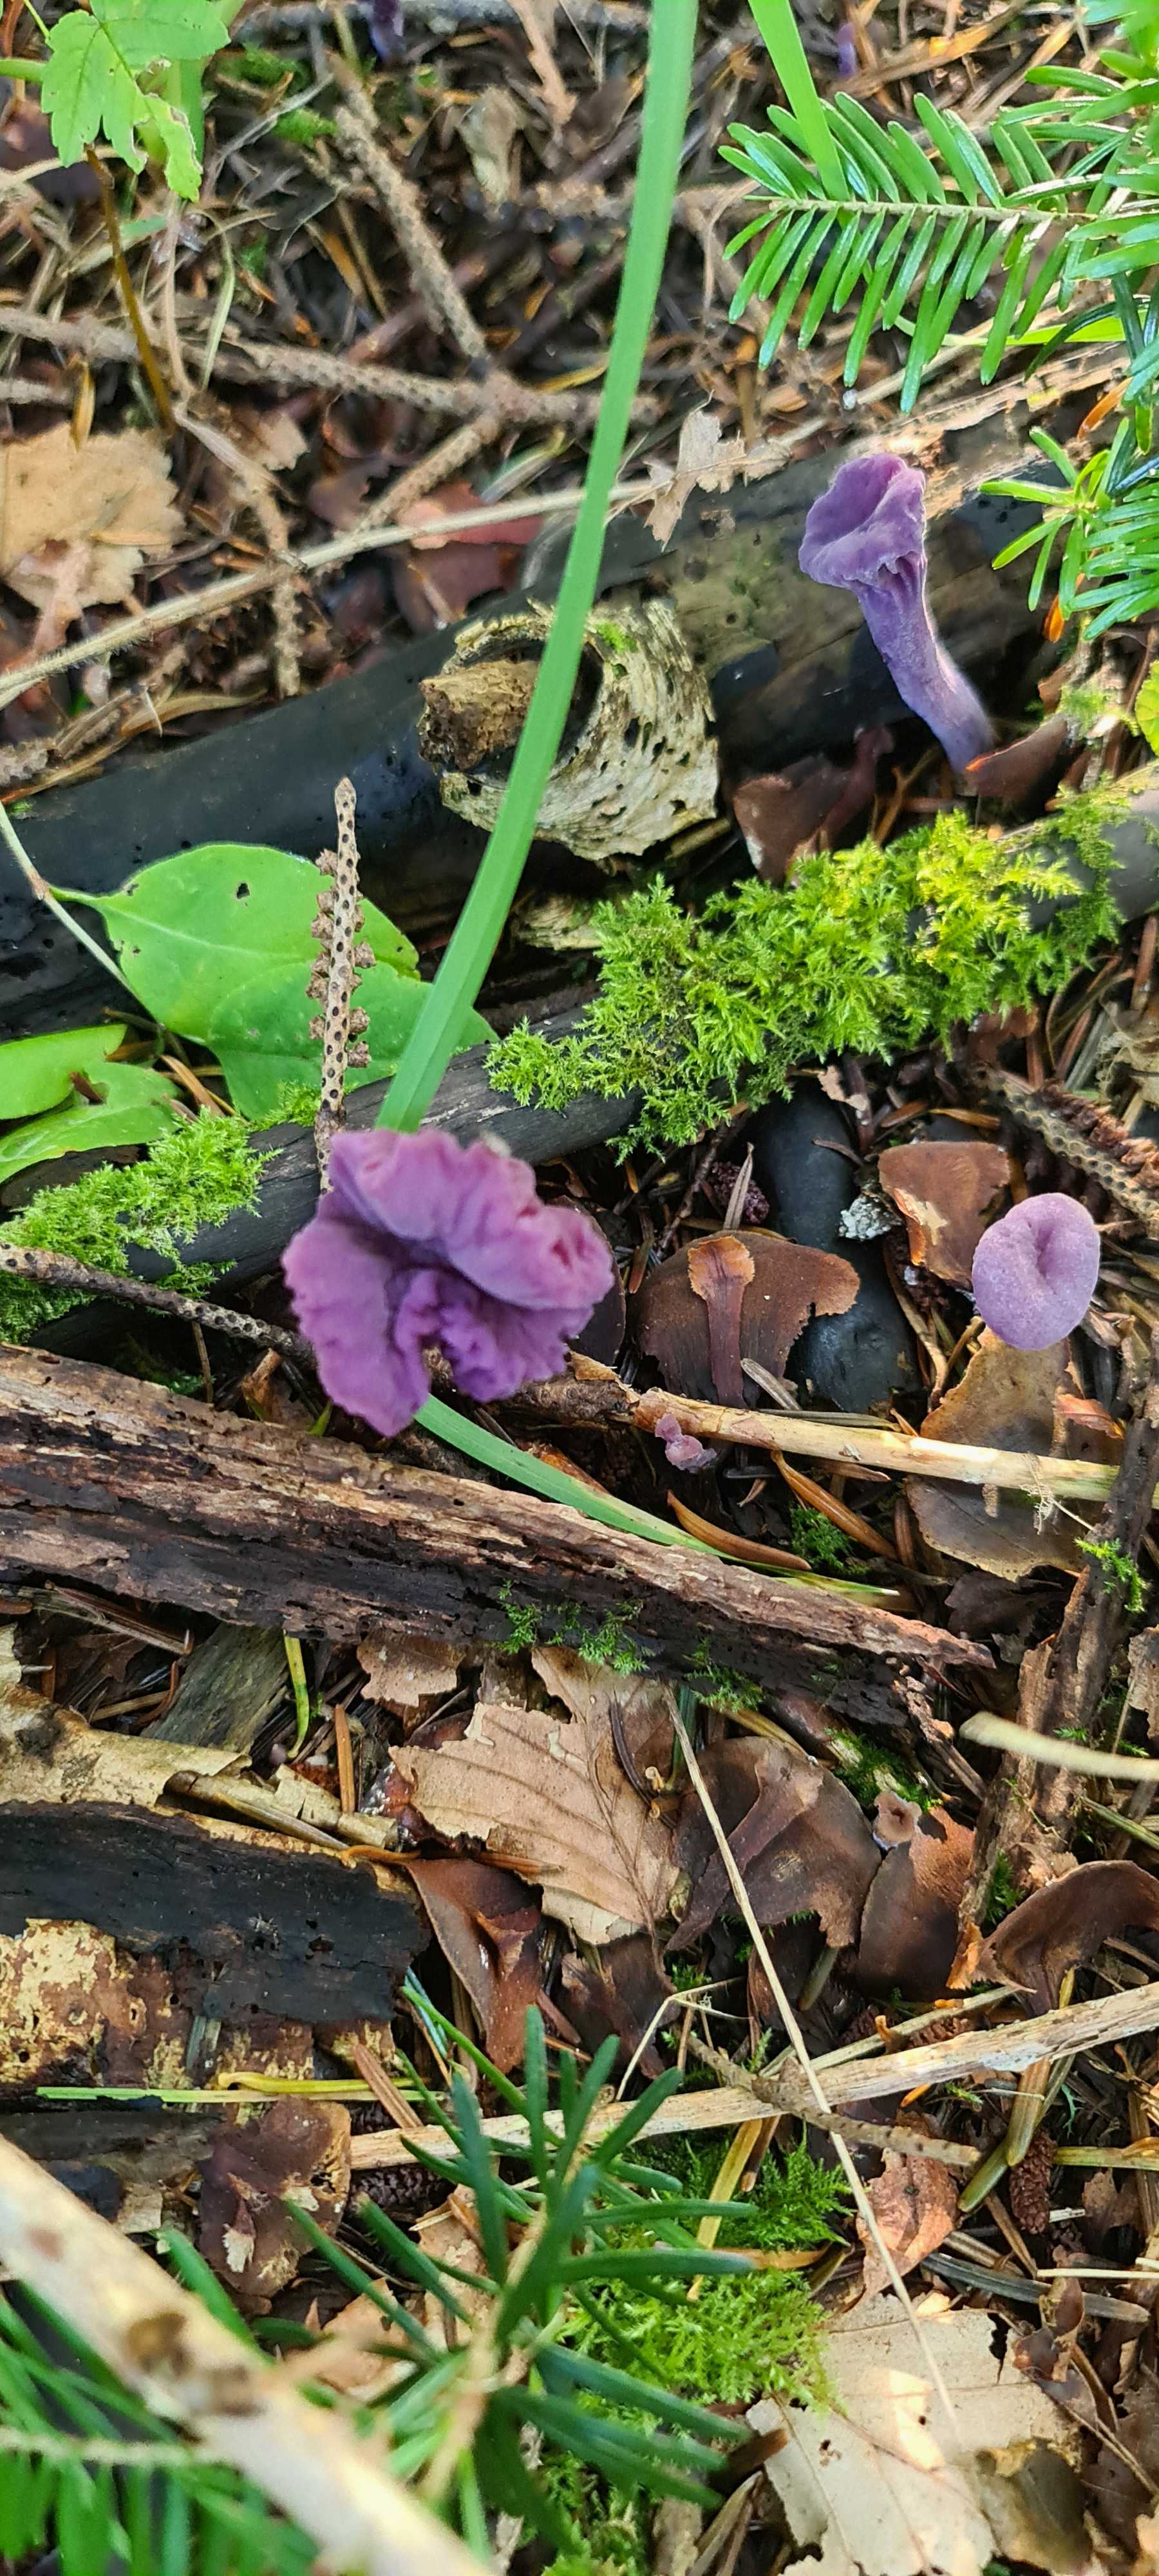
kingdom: Fungi
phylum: Basidiomycota
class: Agaricomycetes
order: Agaricales
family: Hydnangiaceae
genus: Laccaria
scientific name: Laccaria amethystina
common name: violet ametysthat
